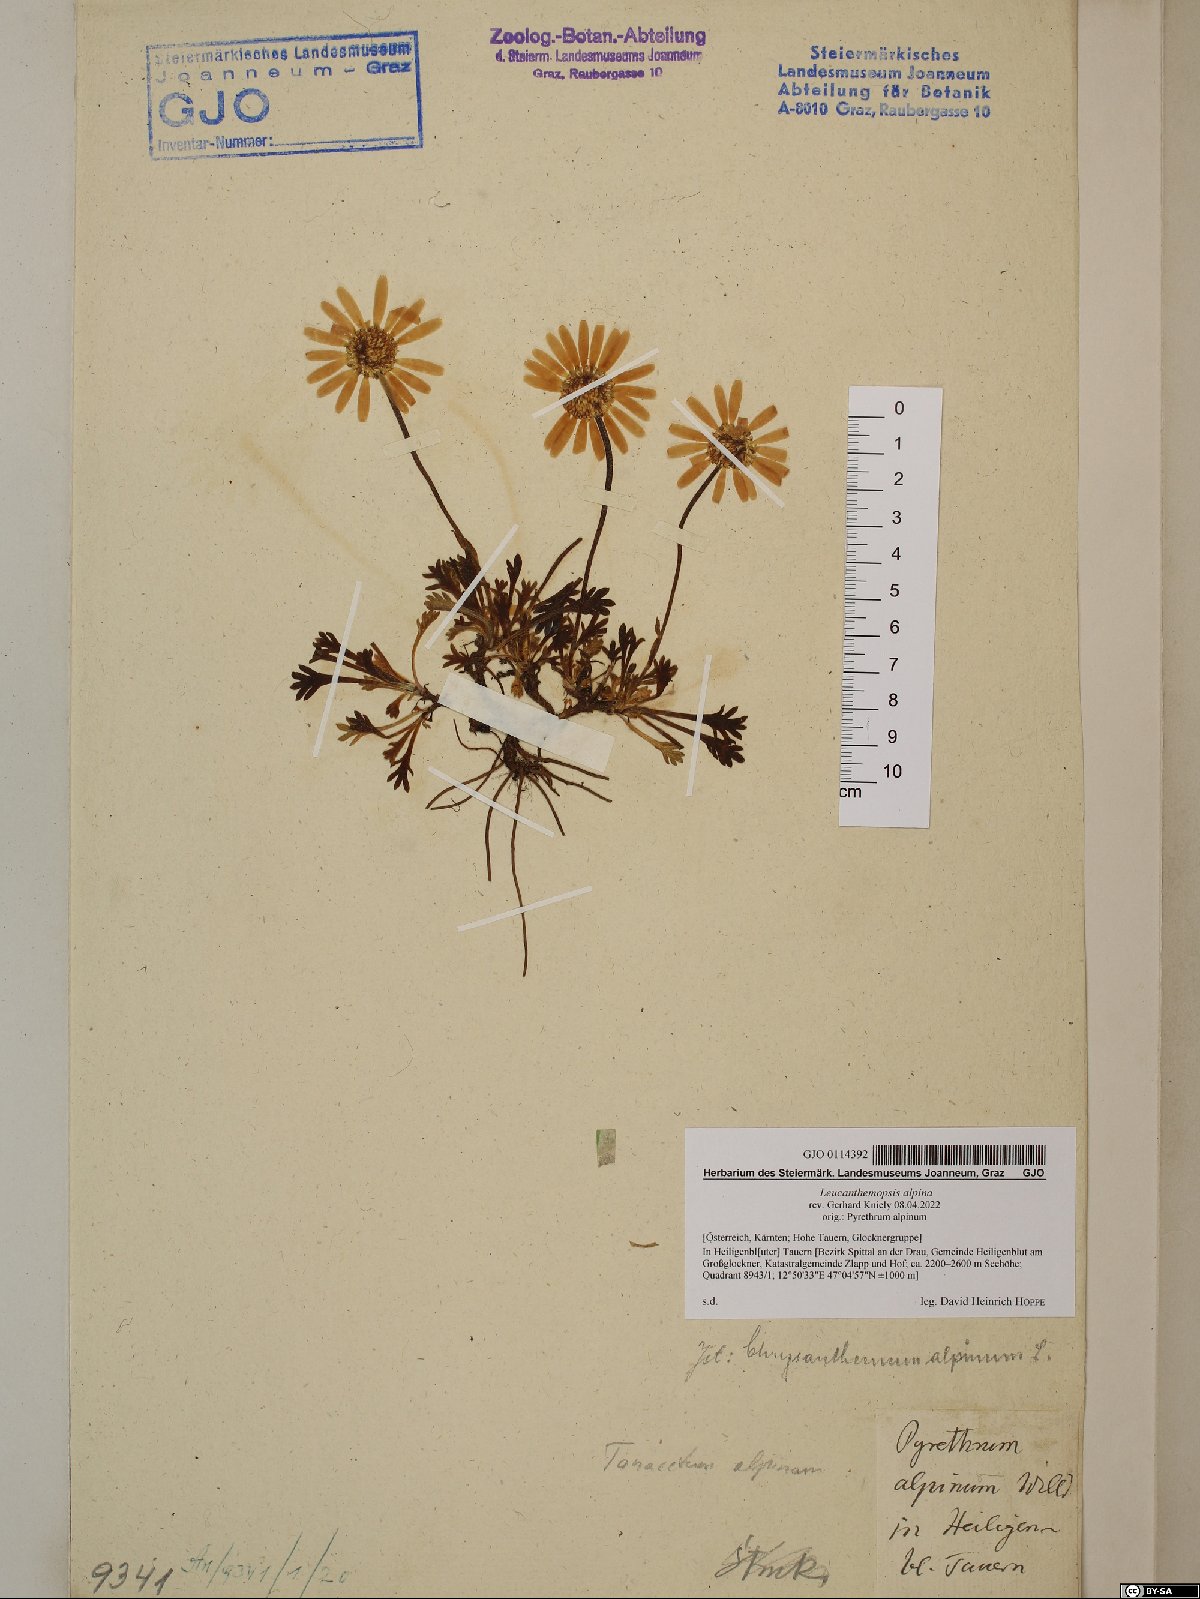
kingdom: Plantae
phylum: Tracheophyta
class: Magnoliopsida
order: Asterales
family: Asteraceae
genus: Leucanthemopsis
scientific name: Leucanthemopsis alpina
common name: Alpine moon daisy
